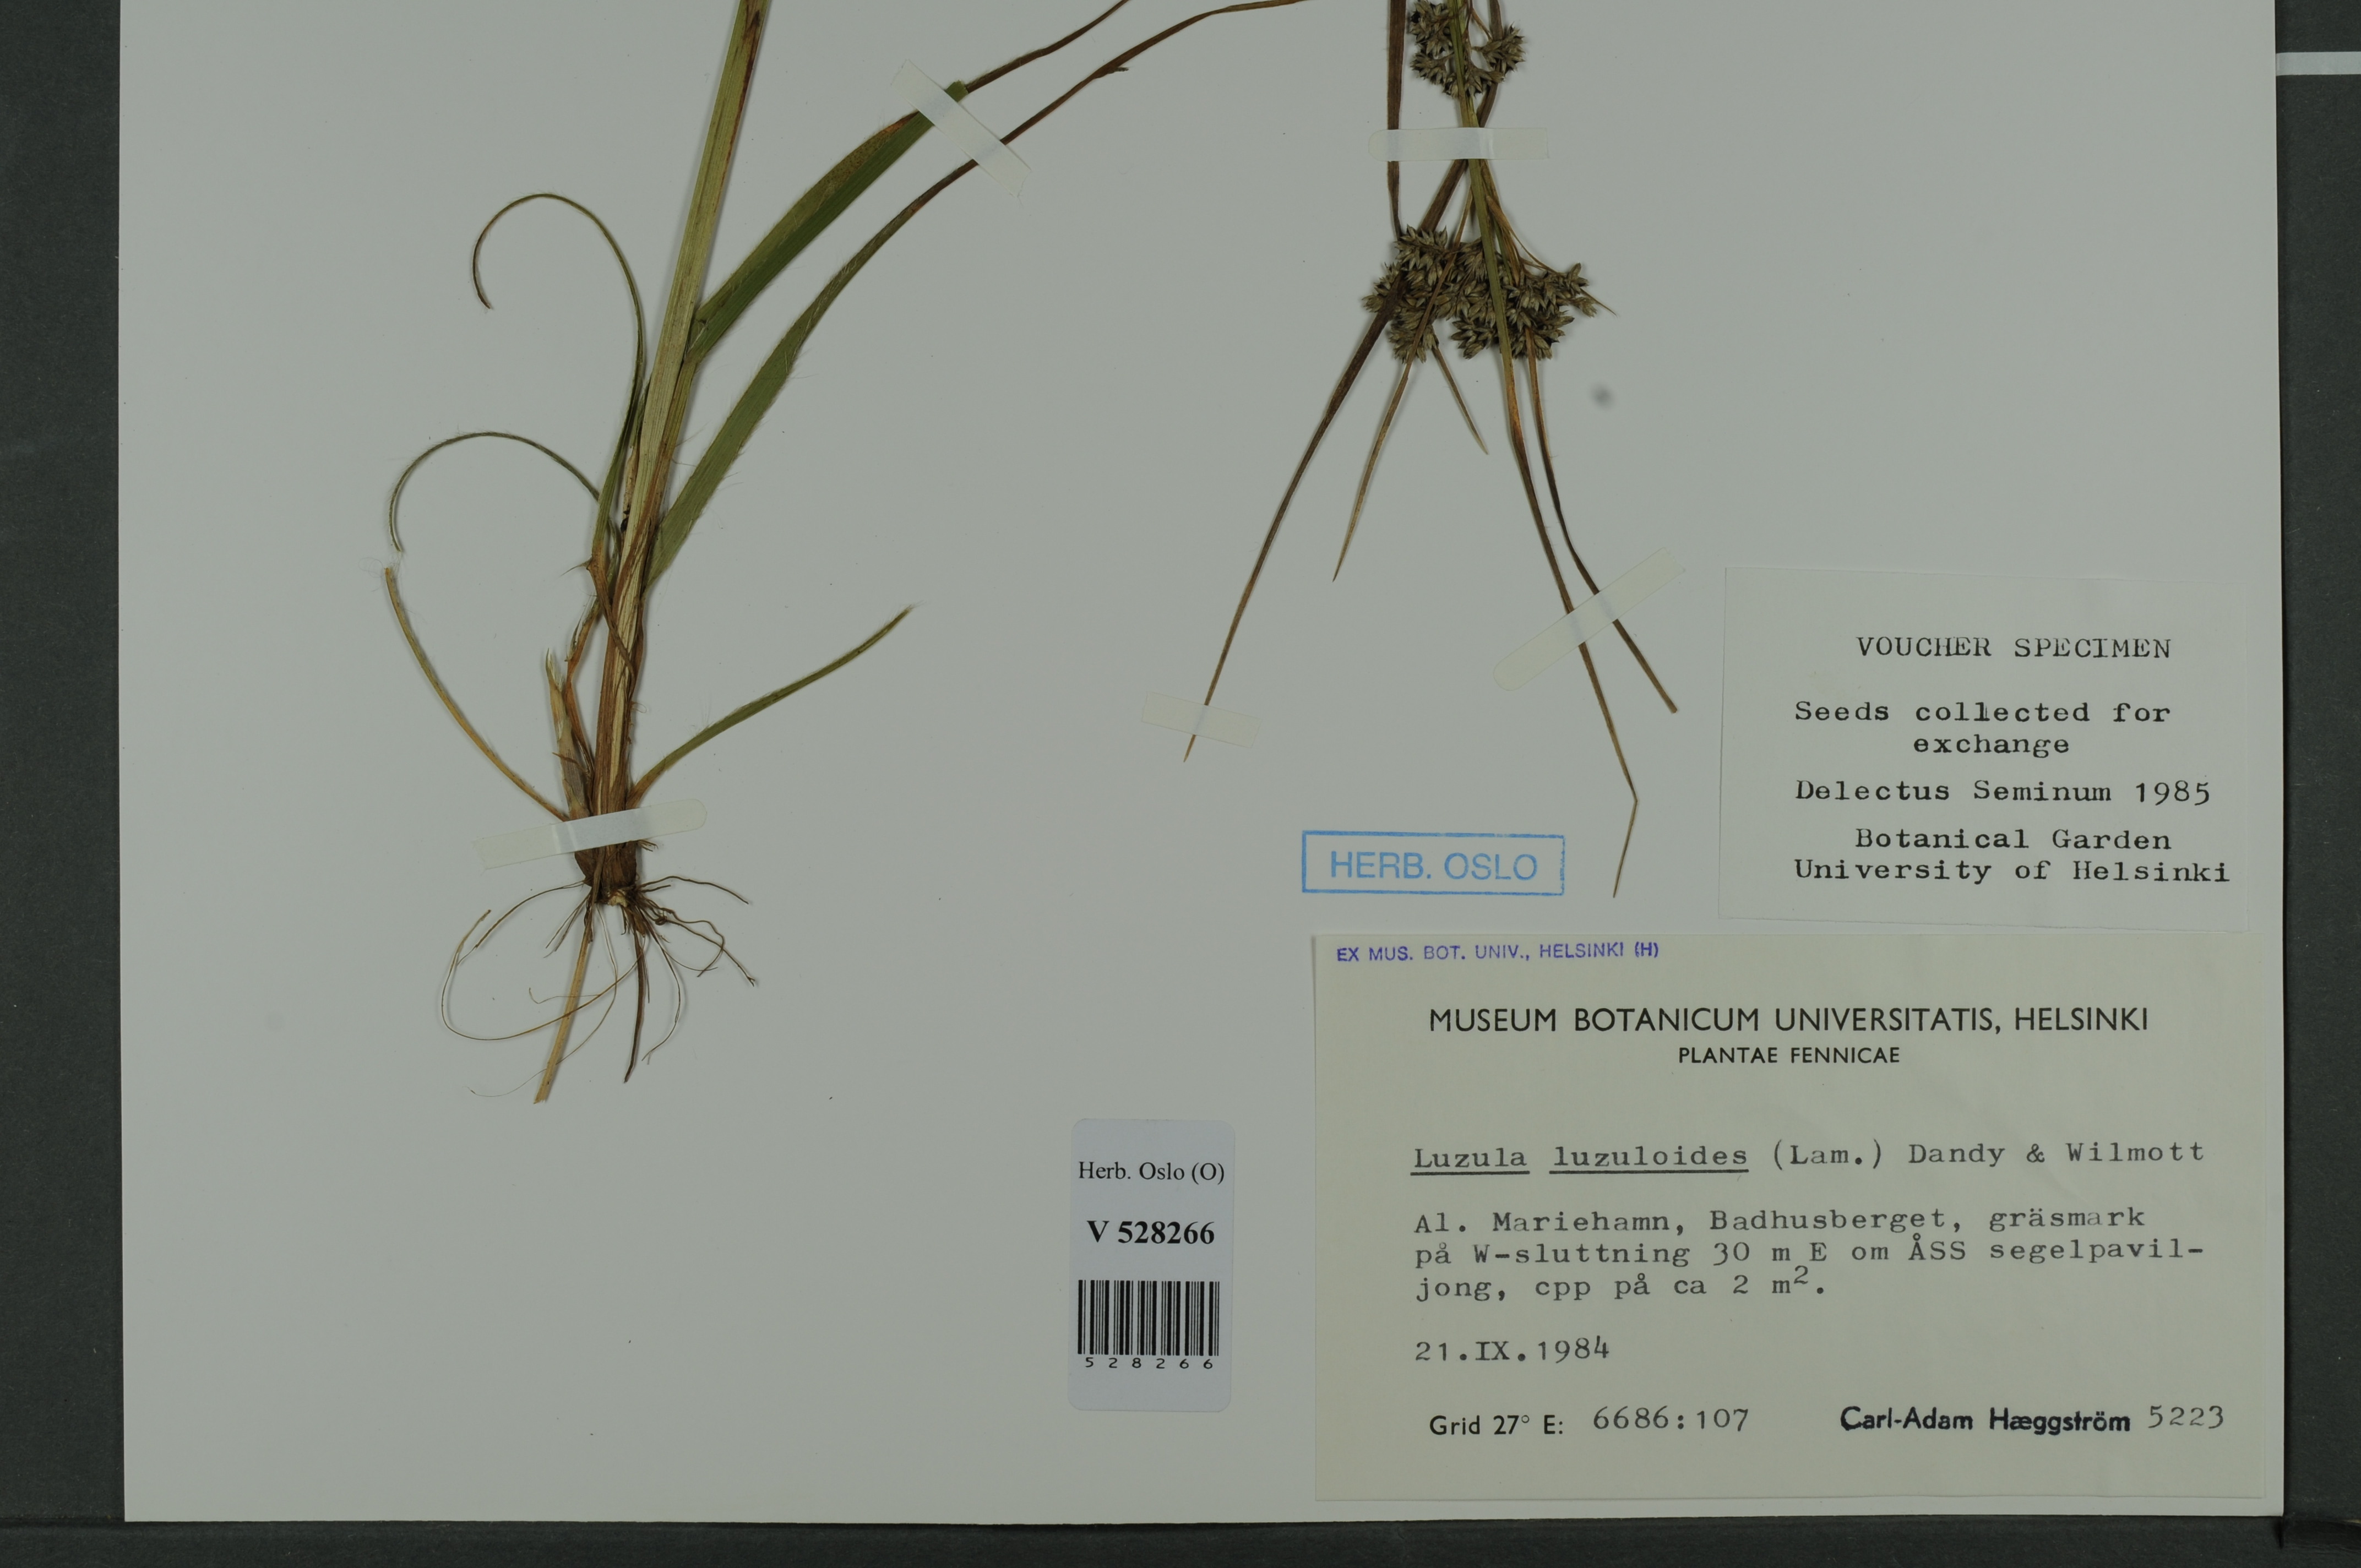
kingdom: Plantae
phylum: Tracheophyta
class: Liliopsida
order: Poales
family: Juncaceae
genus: Luzula
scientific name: Luzula luzuloides
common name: White wood-rush
